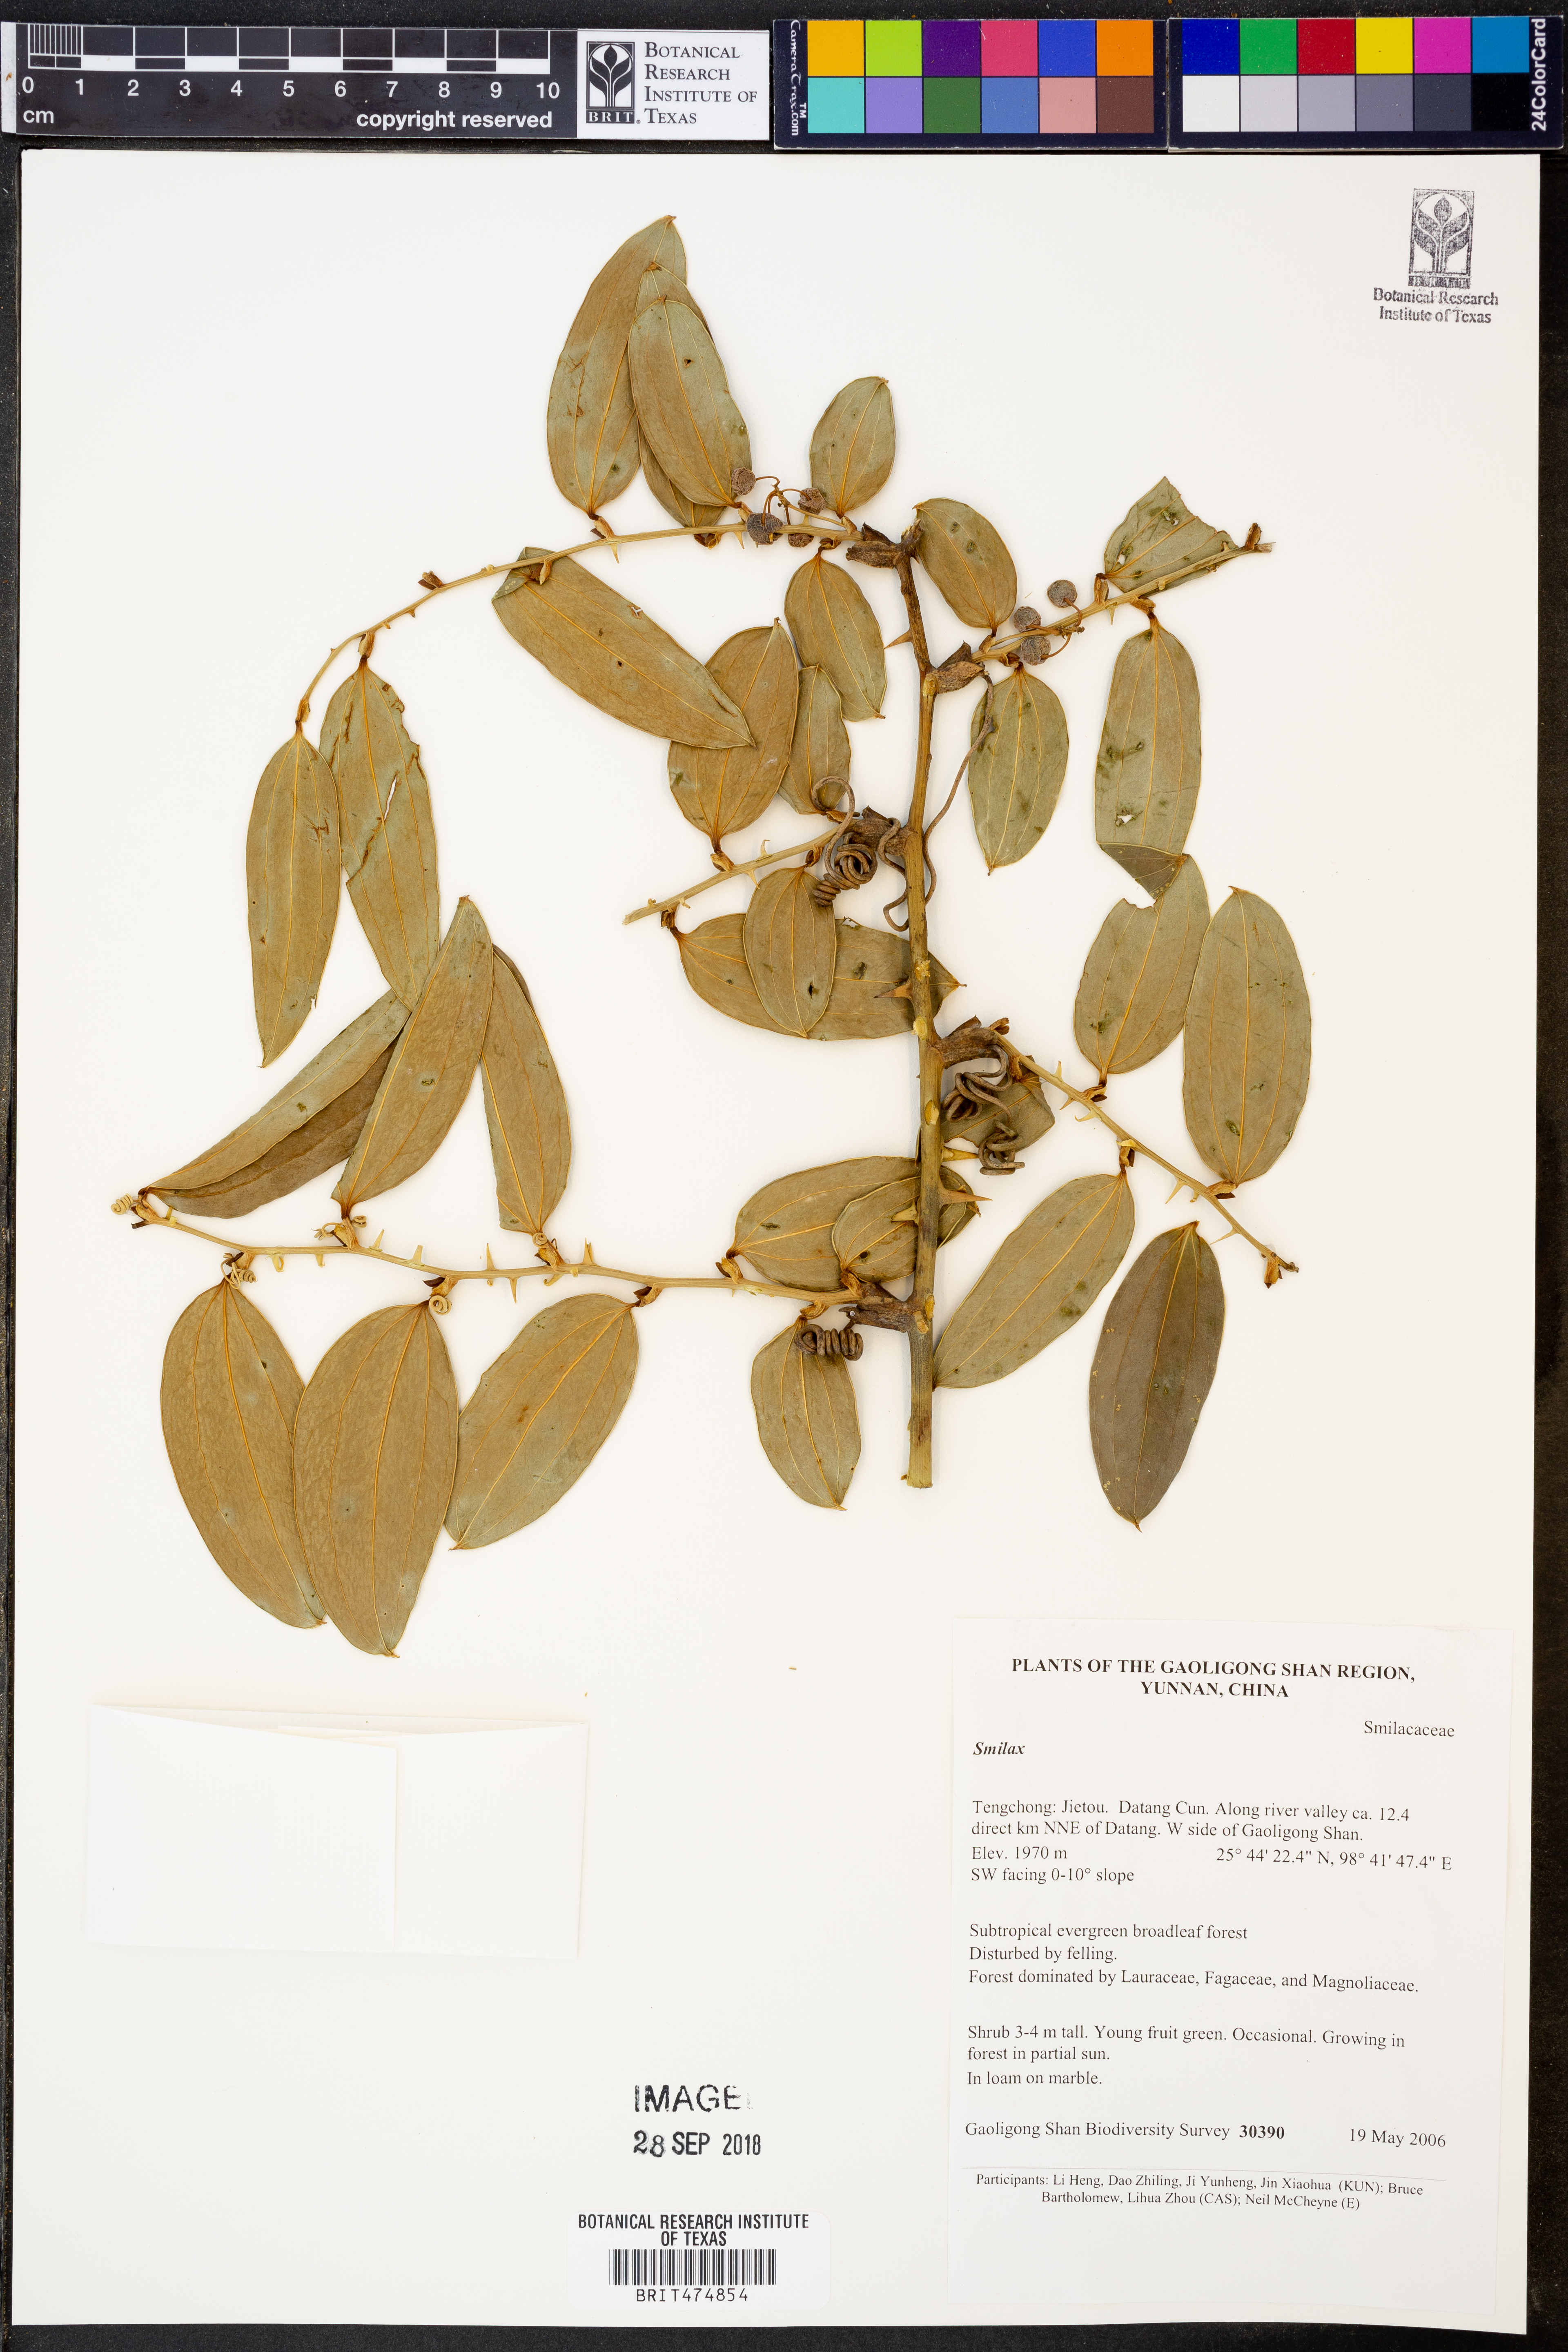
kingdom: Plantae
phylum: Tracheophyta
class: Liliopsida
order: Liliales
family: Smilacaceae
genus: Smilax
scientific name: Smilax
